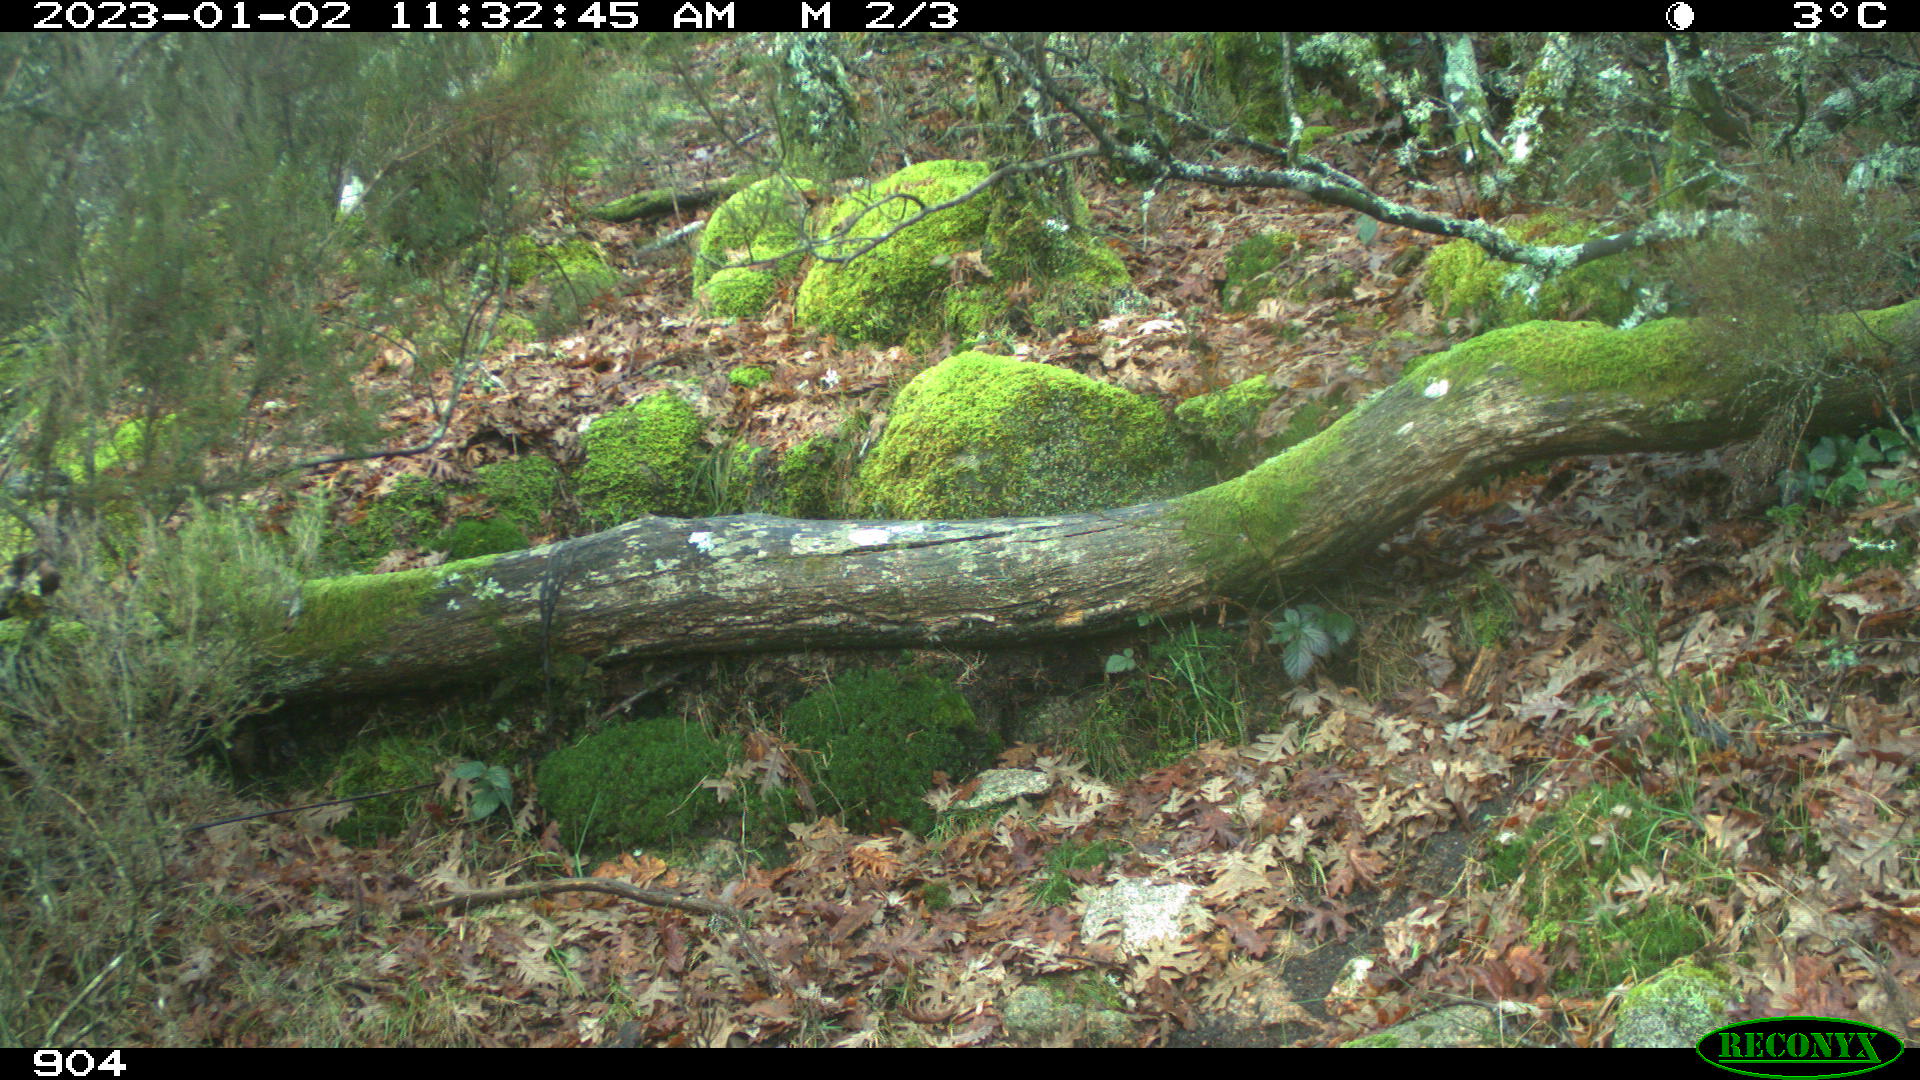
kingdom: Animalia
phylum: Chordata
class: Mammalia
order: Artiodactyla
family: Bovidae
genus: Bos
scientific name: Bos taurus
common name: Domesticated cattle
